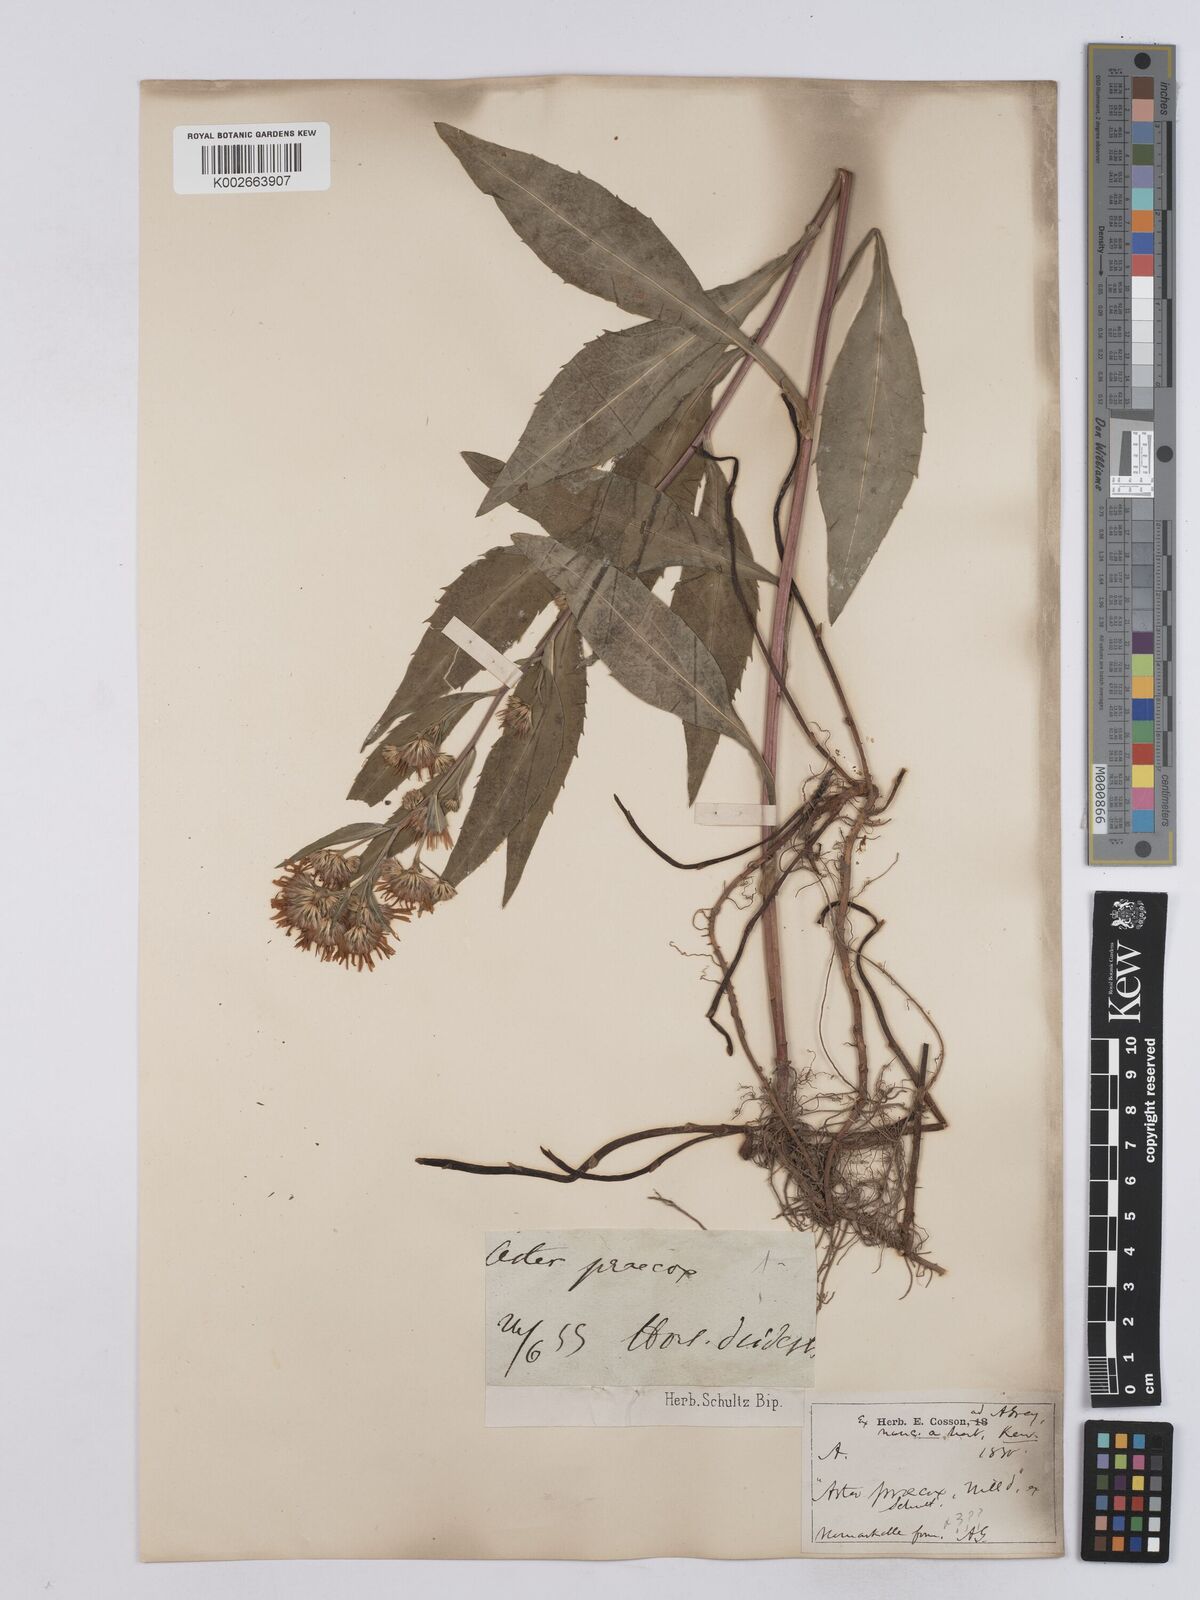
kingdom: Plantae
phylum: Tracheophyta
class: Magnoliopsida
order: Asterales
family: Asteraceae
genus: Symphyotrichum
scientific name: Symphyotrichum
